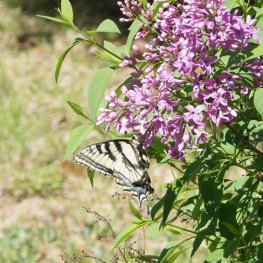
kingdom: Animalia
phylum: Arthropoda
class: Insecta
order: Lepidoptera
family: Papilionidae
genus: Pterourus
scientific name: Pterourus canadensis
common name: Canadian Tiger Swallowtail
